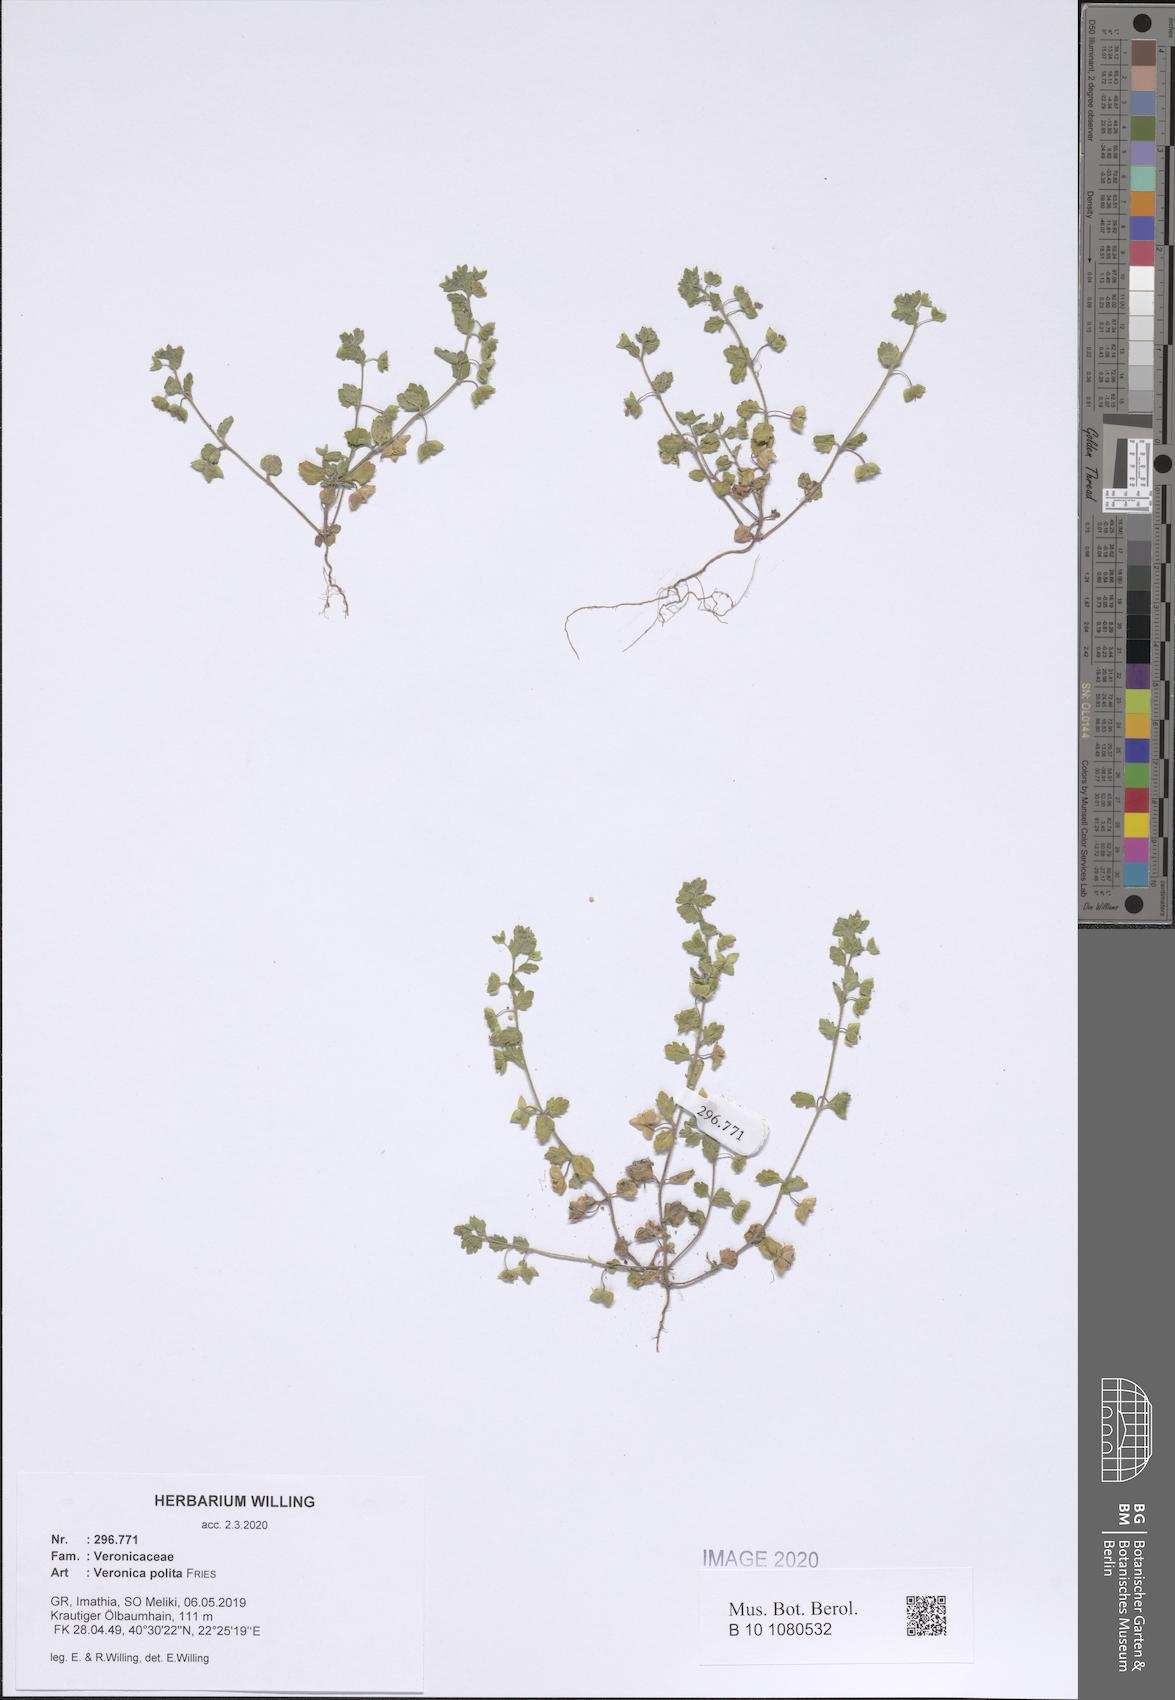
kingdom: Plantae
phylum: Tracheophyta
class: Magnoliopsida
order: Lamiales
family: Plantaginaceae
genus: Veronica
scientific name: Veronica polita
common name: Grey field-speedwell
